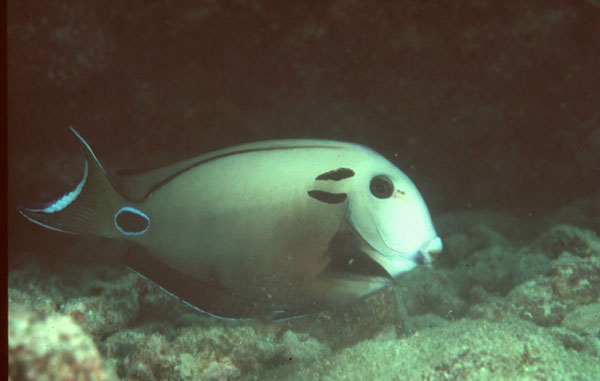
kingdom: Animalia
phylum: Chordata
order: Perciformes
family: Acanthuridae
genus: Acanthurus
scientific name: Acanthurus tennentii
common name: Doubleband surgeonfish
